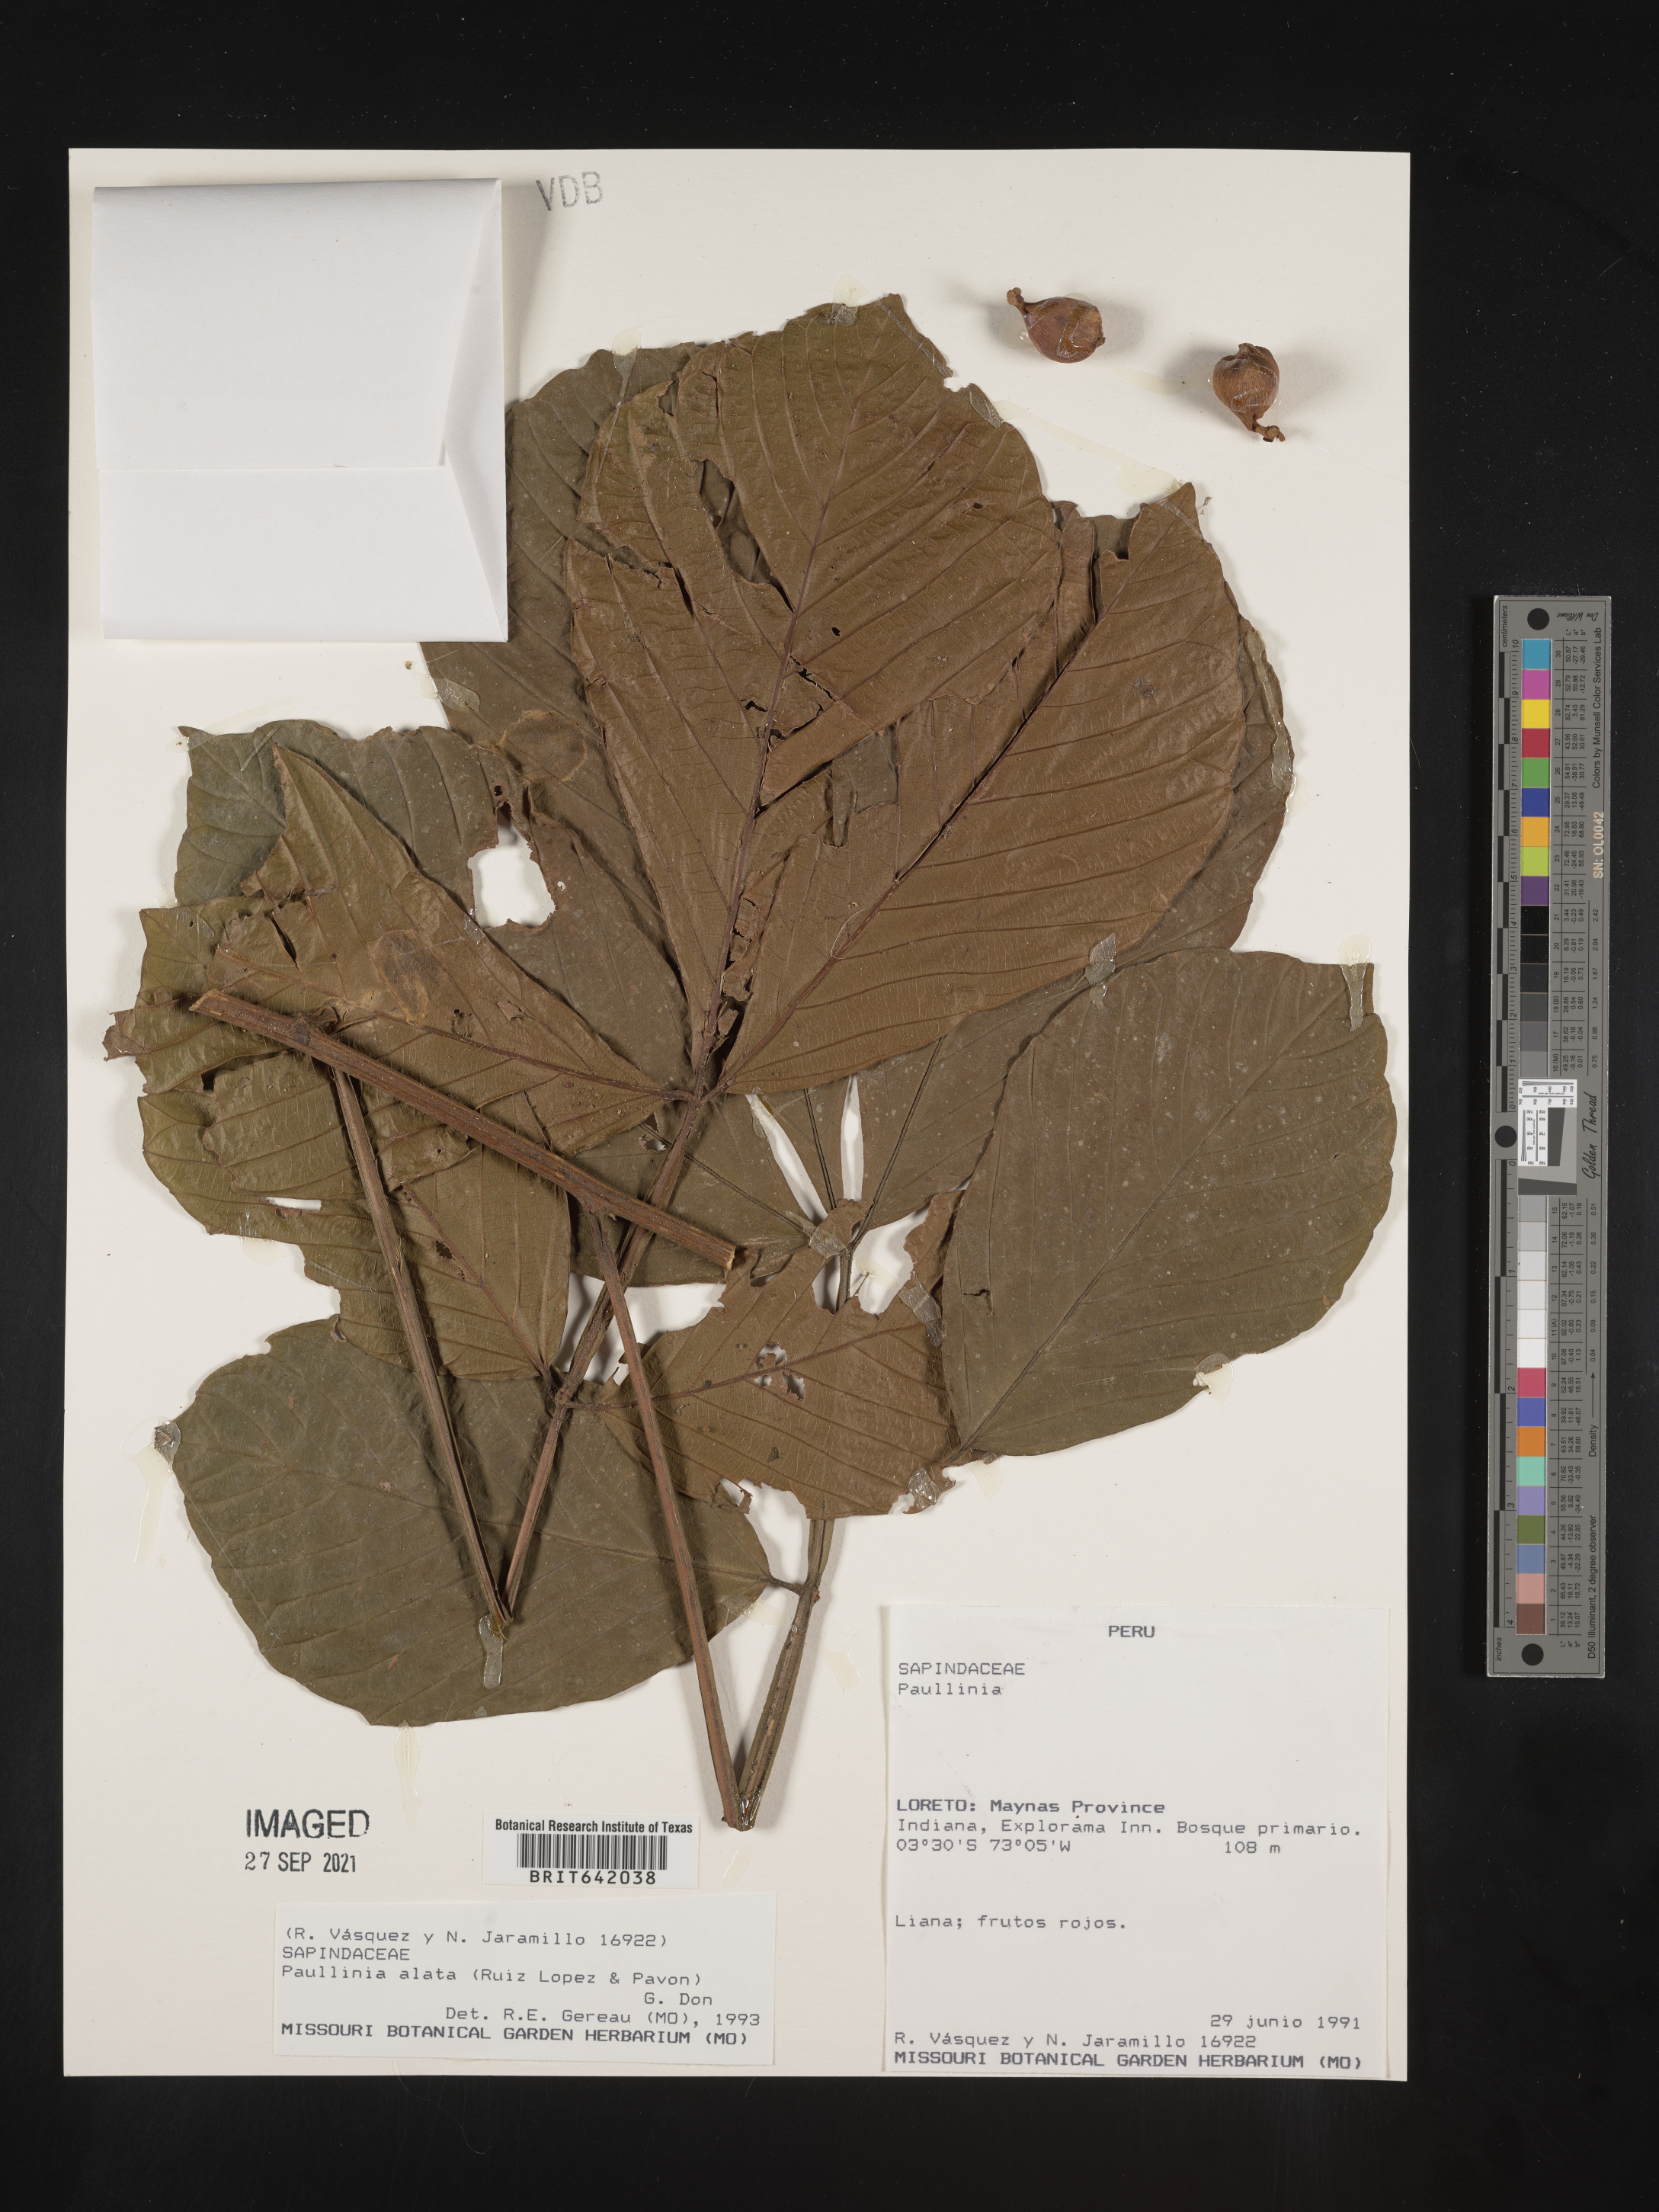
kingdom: Plantae
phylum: Tracheophyta
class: Magnoliopsida
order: Sapindales
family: Sapindaceae
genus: Paullinia
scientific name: Paullinia
